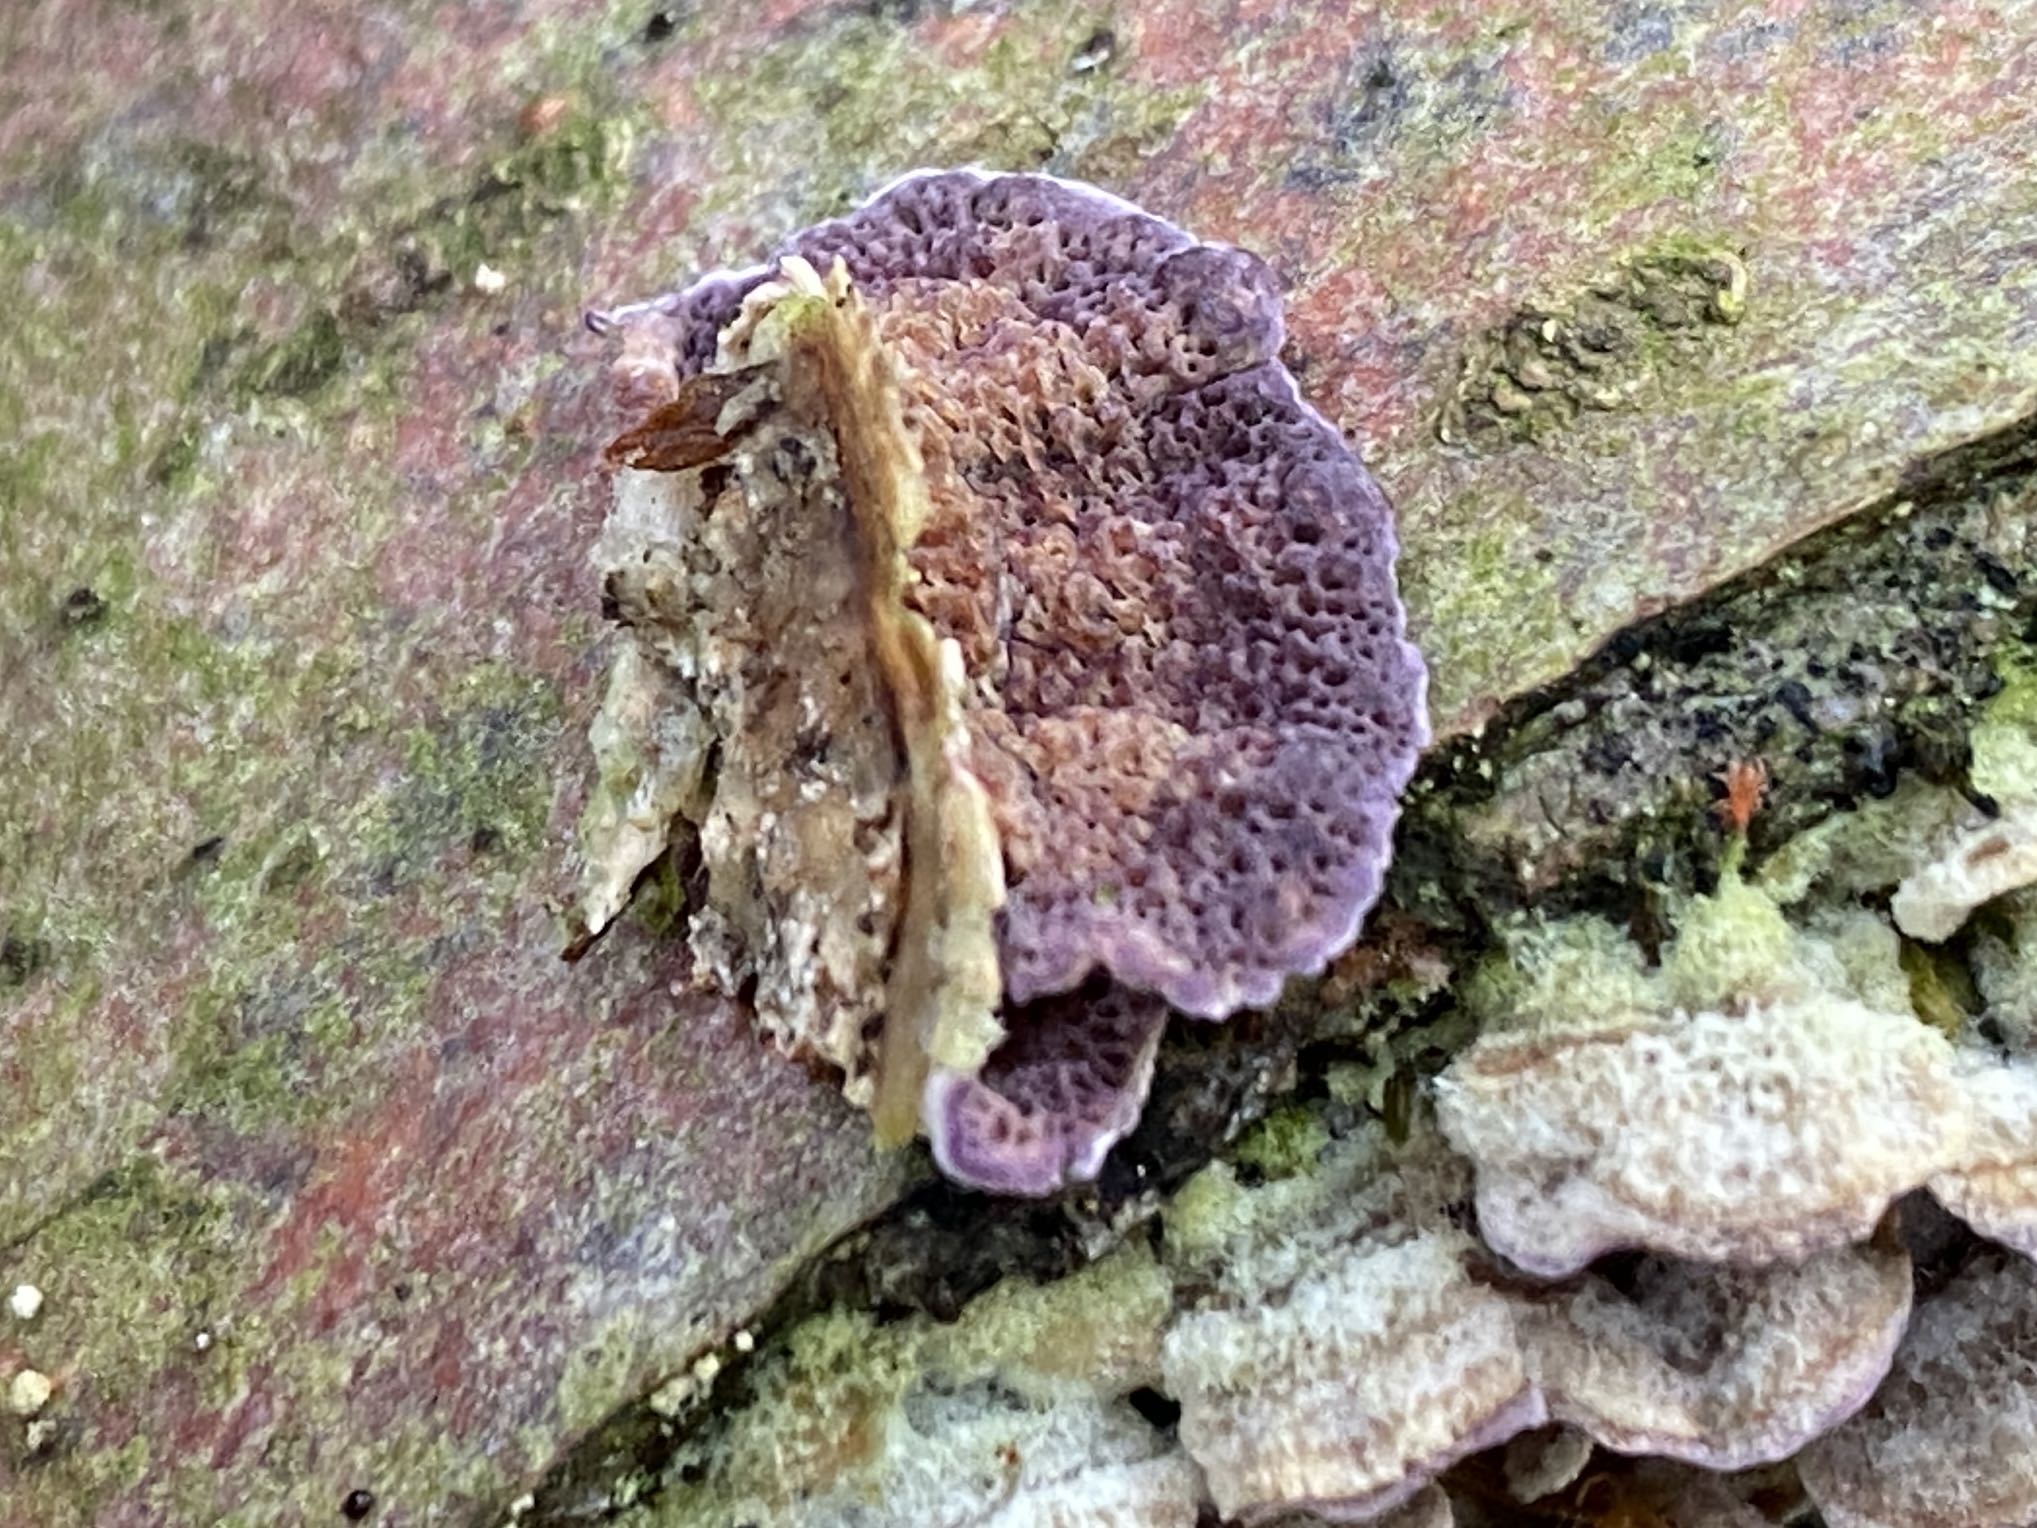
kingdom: Fungi
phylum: Basidiomycota
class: Agaricomycetes
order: Hymenochaetales
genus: Trichaptum
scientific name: Trichaptum abietinum
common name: almindelig violporesvamp
